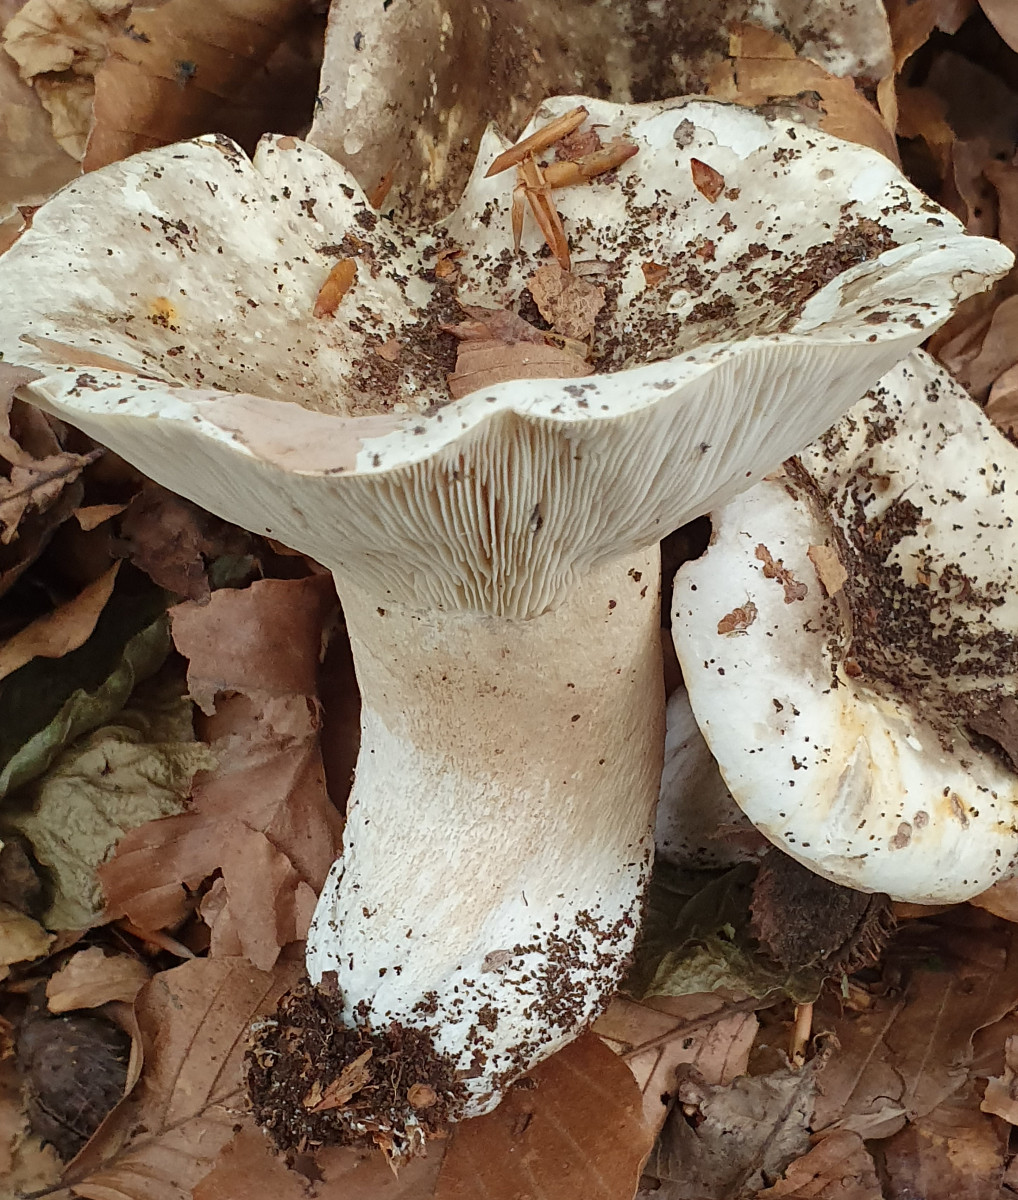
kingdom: Fungi
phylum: Basidiomycota
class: Agaricomycetes
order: Russulales
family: Russulaceae
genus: Russula
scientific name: Russula delica
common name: almindelig tragt-skørhat
